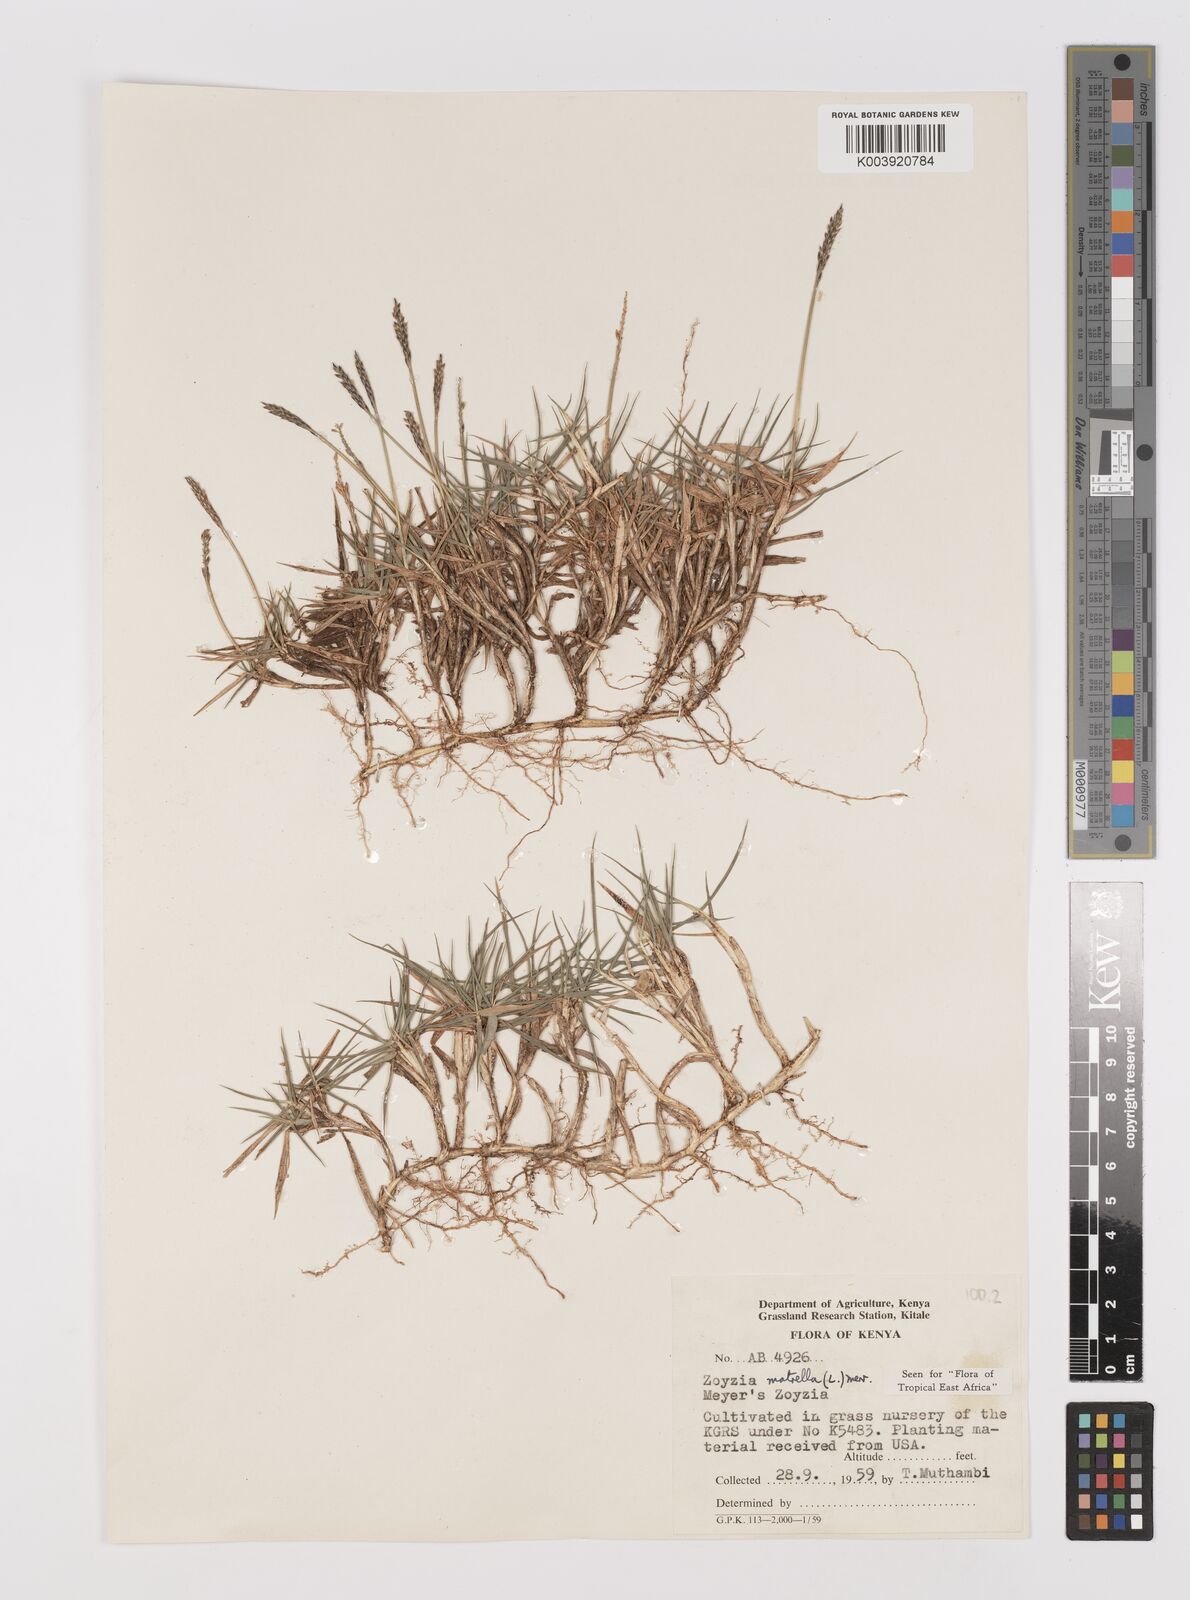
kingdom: Plantae
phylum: Tracheophyta
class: Liliopsida
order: Poales
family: Poaceae
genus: Zoysia
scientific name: Zoysia matrella
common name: Manila grass
